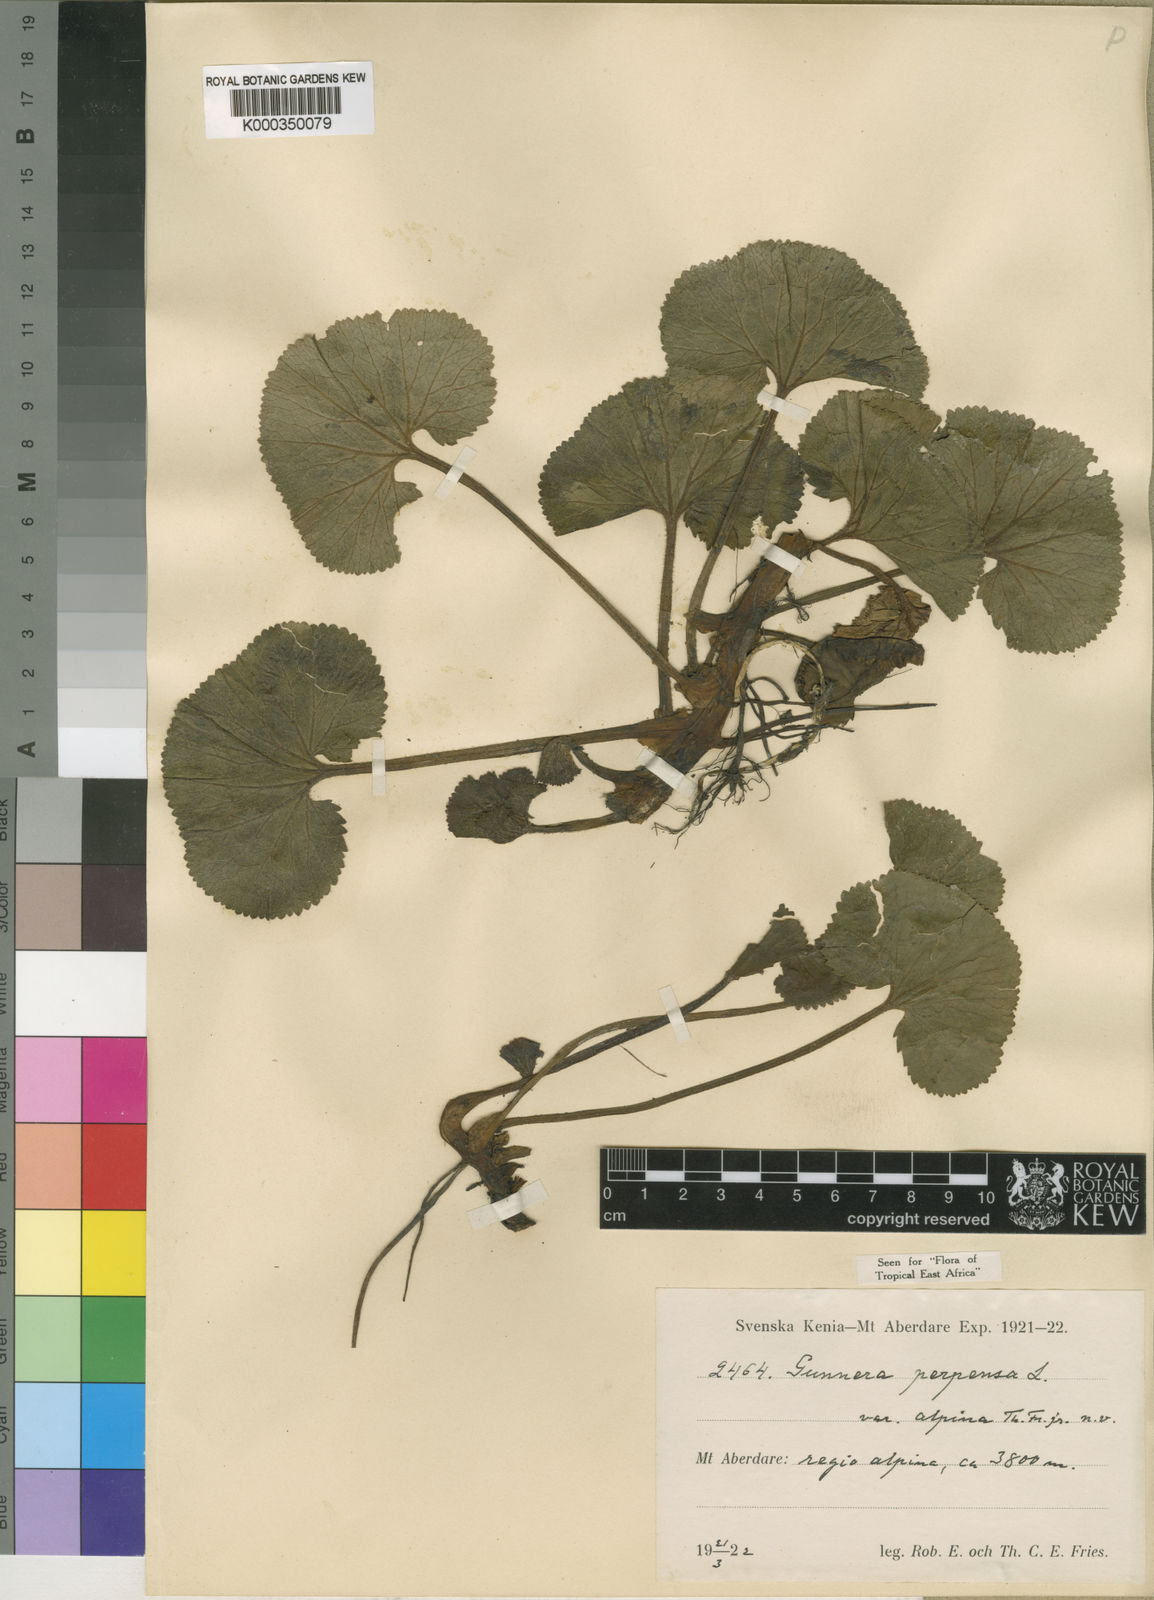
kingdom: Plantae
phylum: Tracheophyta
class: Magnoliopsida
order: Gunnerales
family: Gunneraceae
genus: Gunnera
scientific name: Gunnera perpensa
